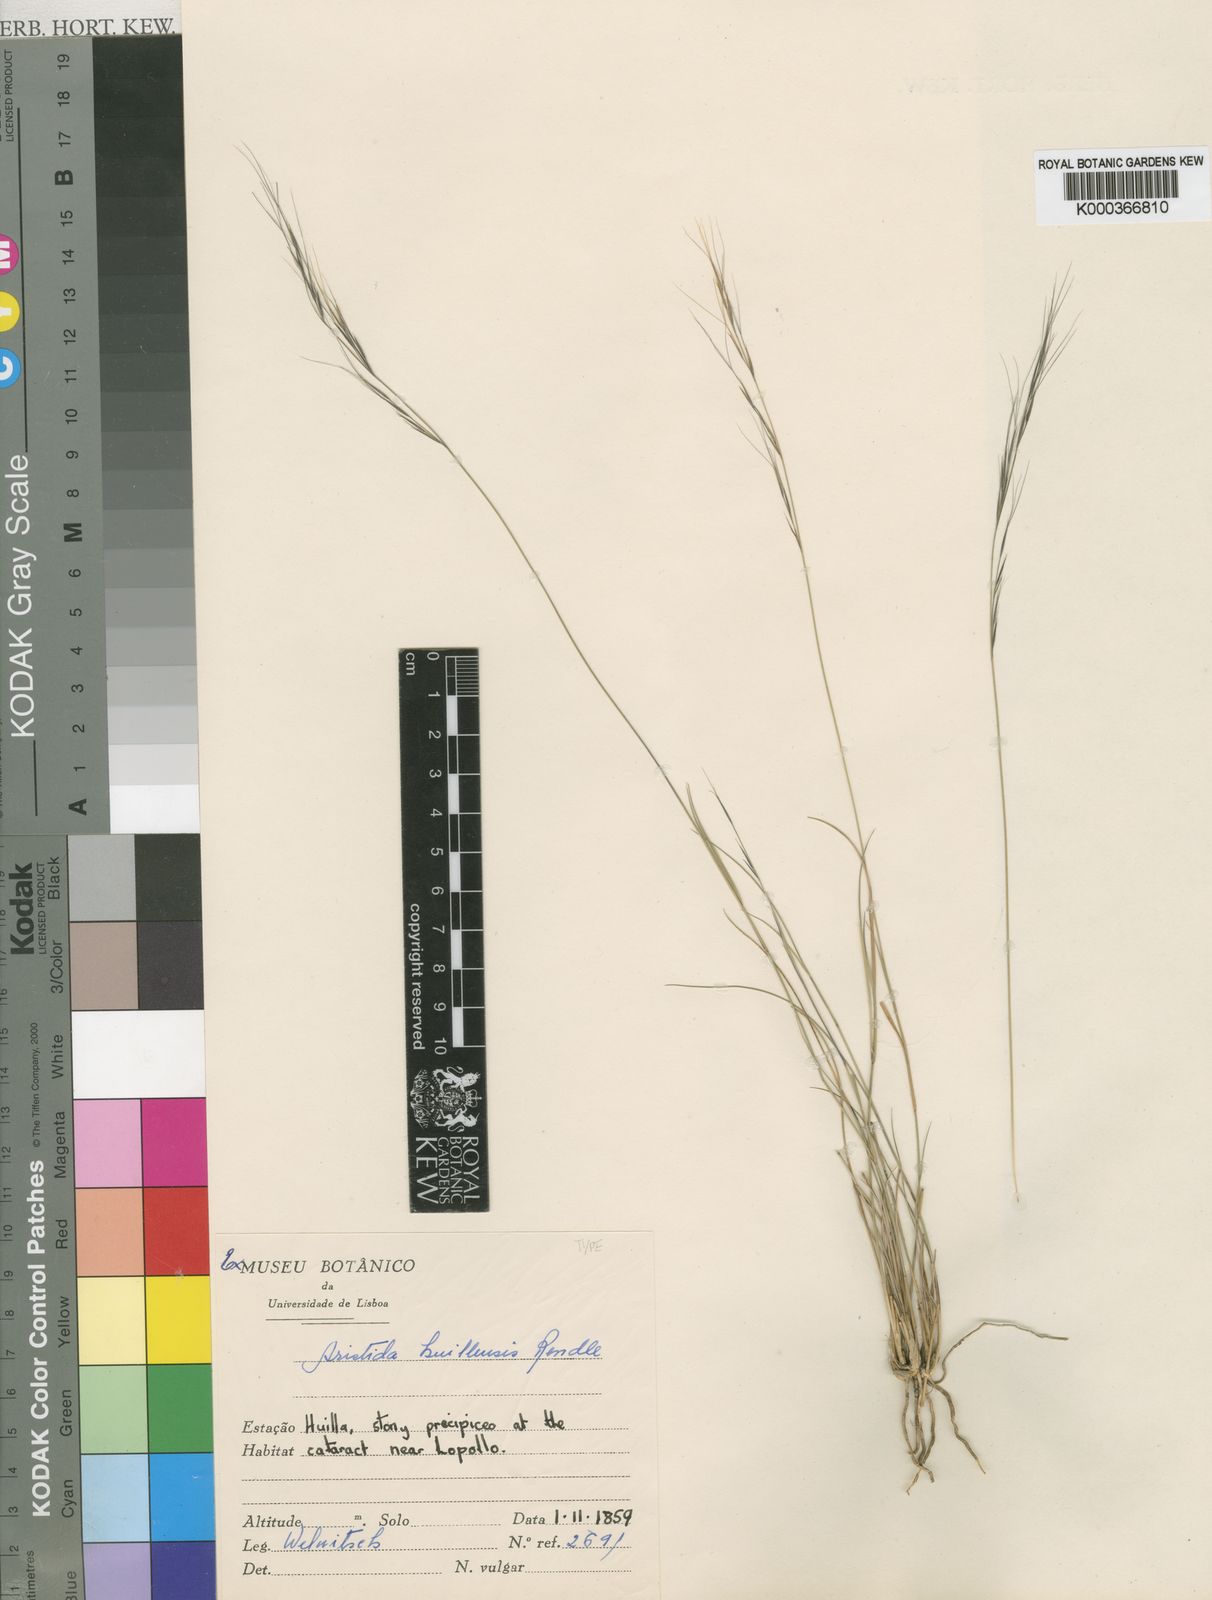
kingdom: Plantae
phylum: Tracheophyta
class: Liliopsida
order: Poales
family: Poaceae
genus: Aristida
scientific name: Aristida
